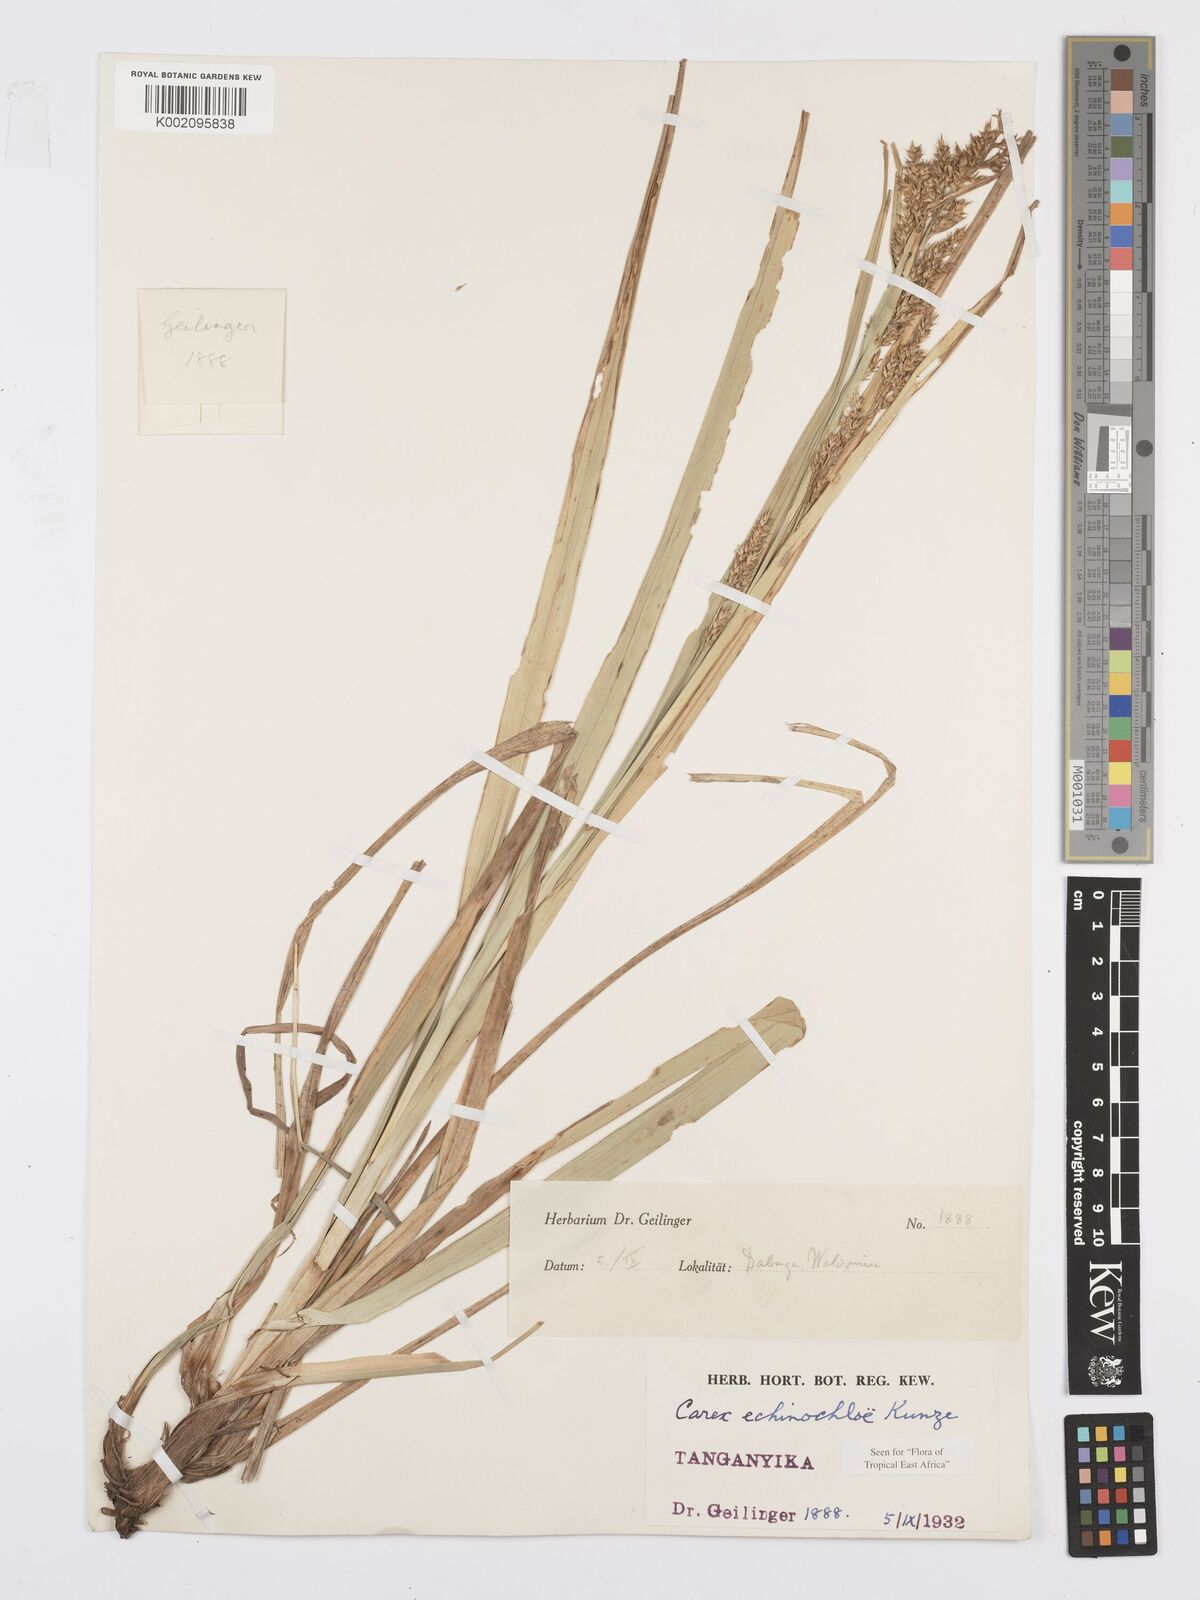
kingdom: Plantae
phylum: Tracheophyta
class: Liliopsida
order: Poales
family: Cyperaceae
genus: Carex
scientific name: Carex echinochloe
